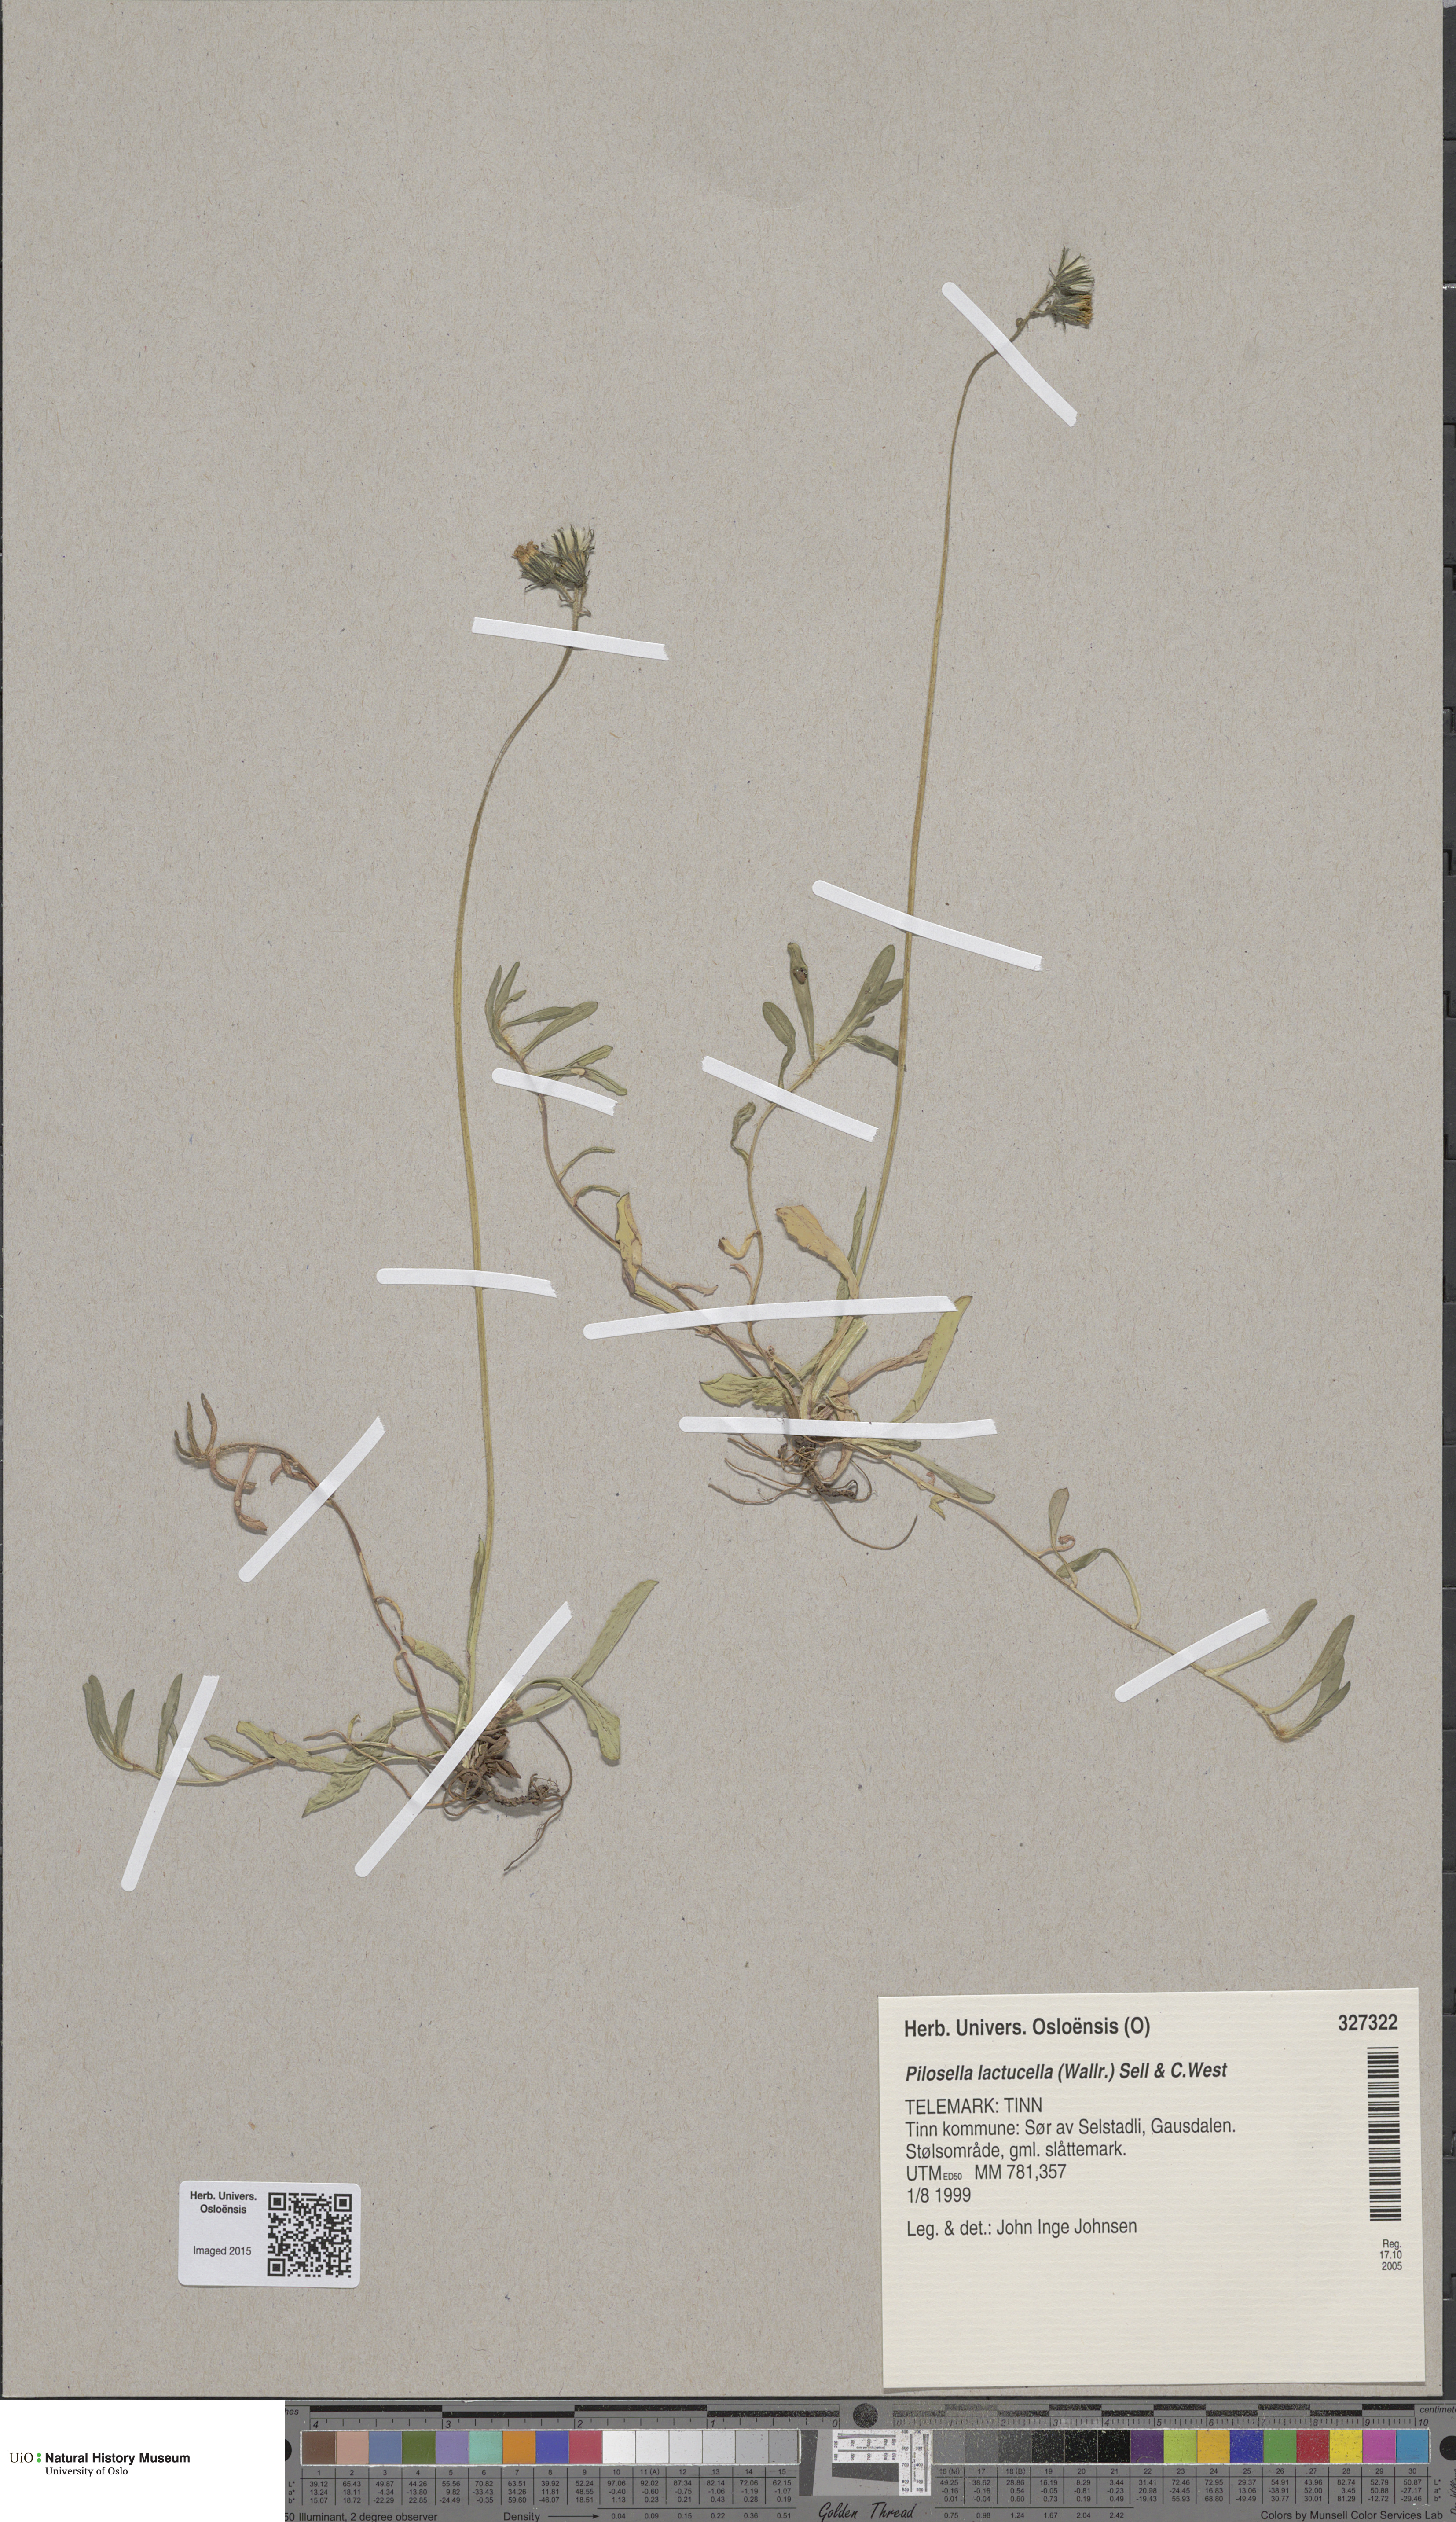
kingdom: Plantae
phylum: Tracheophyta
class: Magnoliopsida
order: Asterales
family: Asteraceae
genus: Pilosella
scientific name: Pilosella lactucella
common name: Glaucous fox-and-cubs
